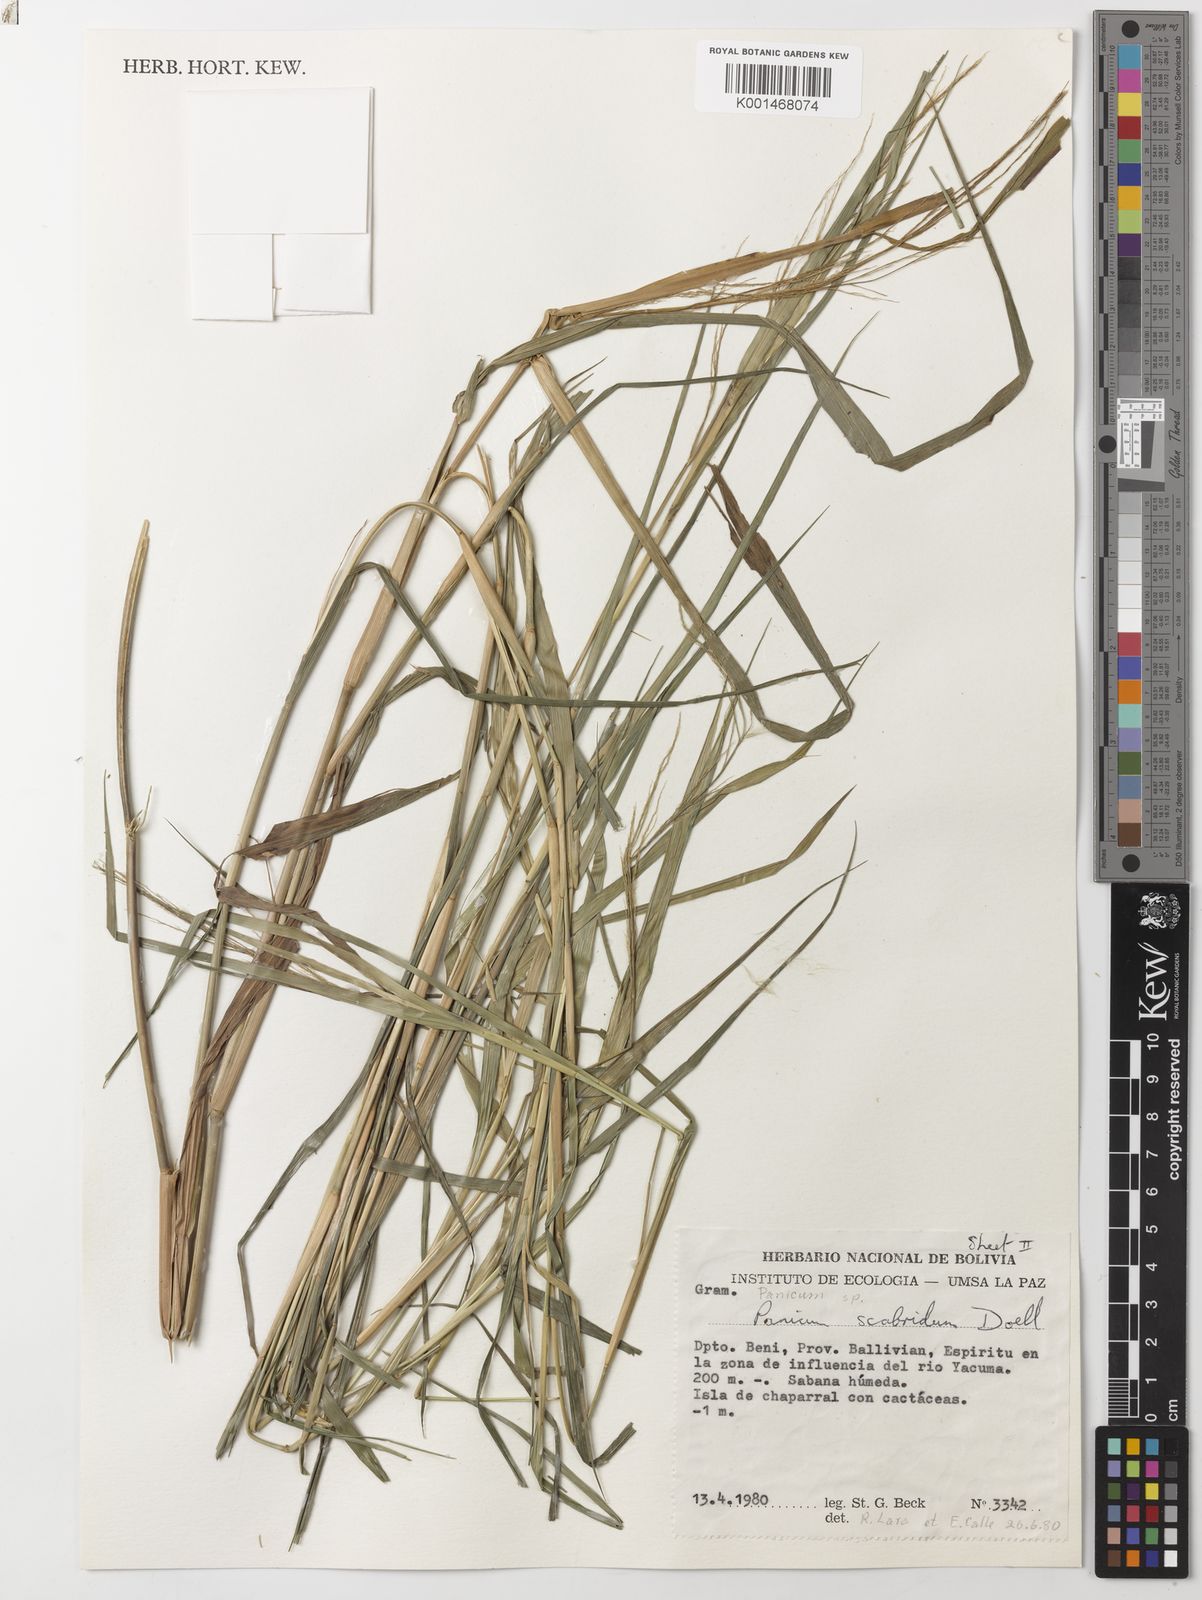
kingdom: Plantae
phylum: Tracheophyta
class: Liliopsida
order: Poales
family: Poaceae
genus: Panicum
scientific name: Panicum
